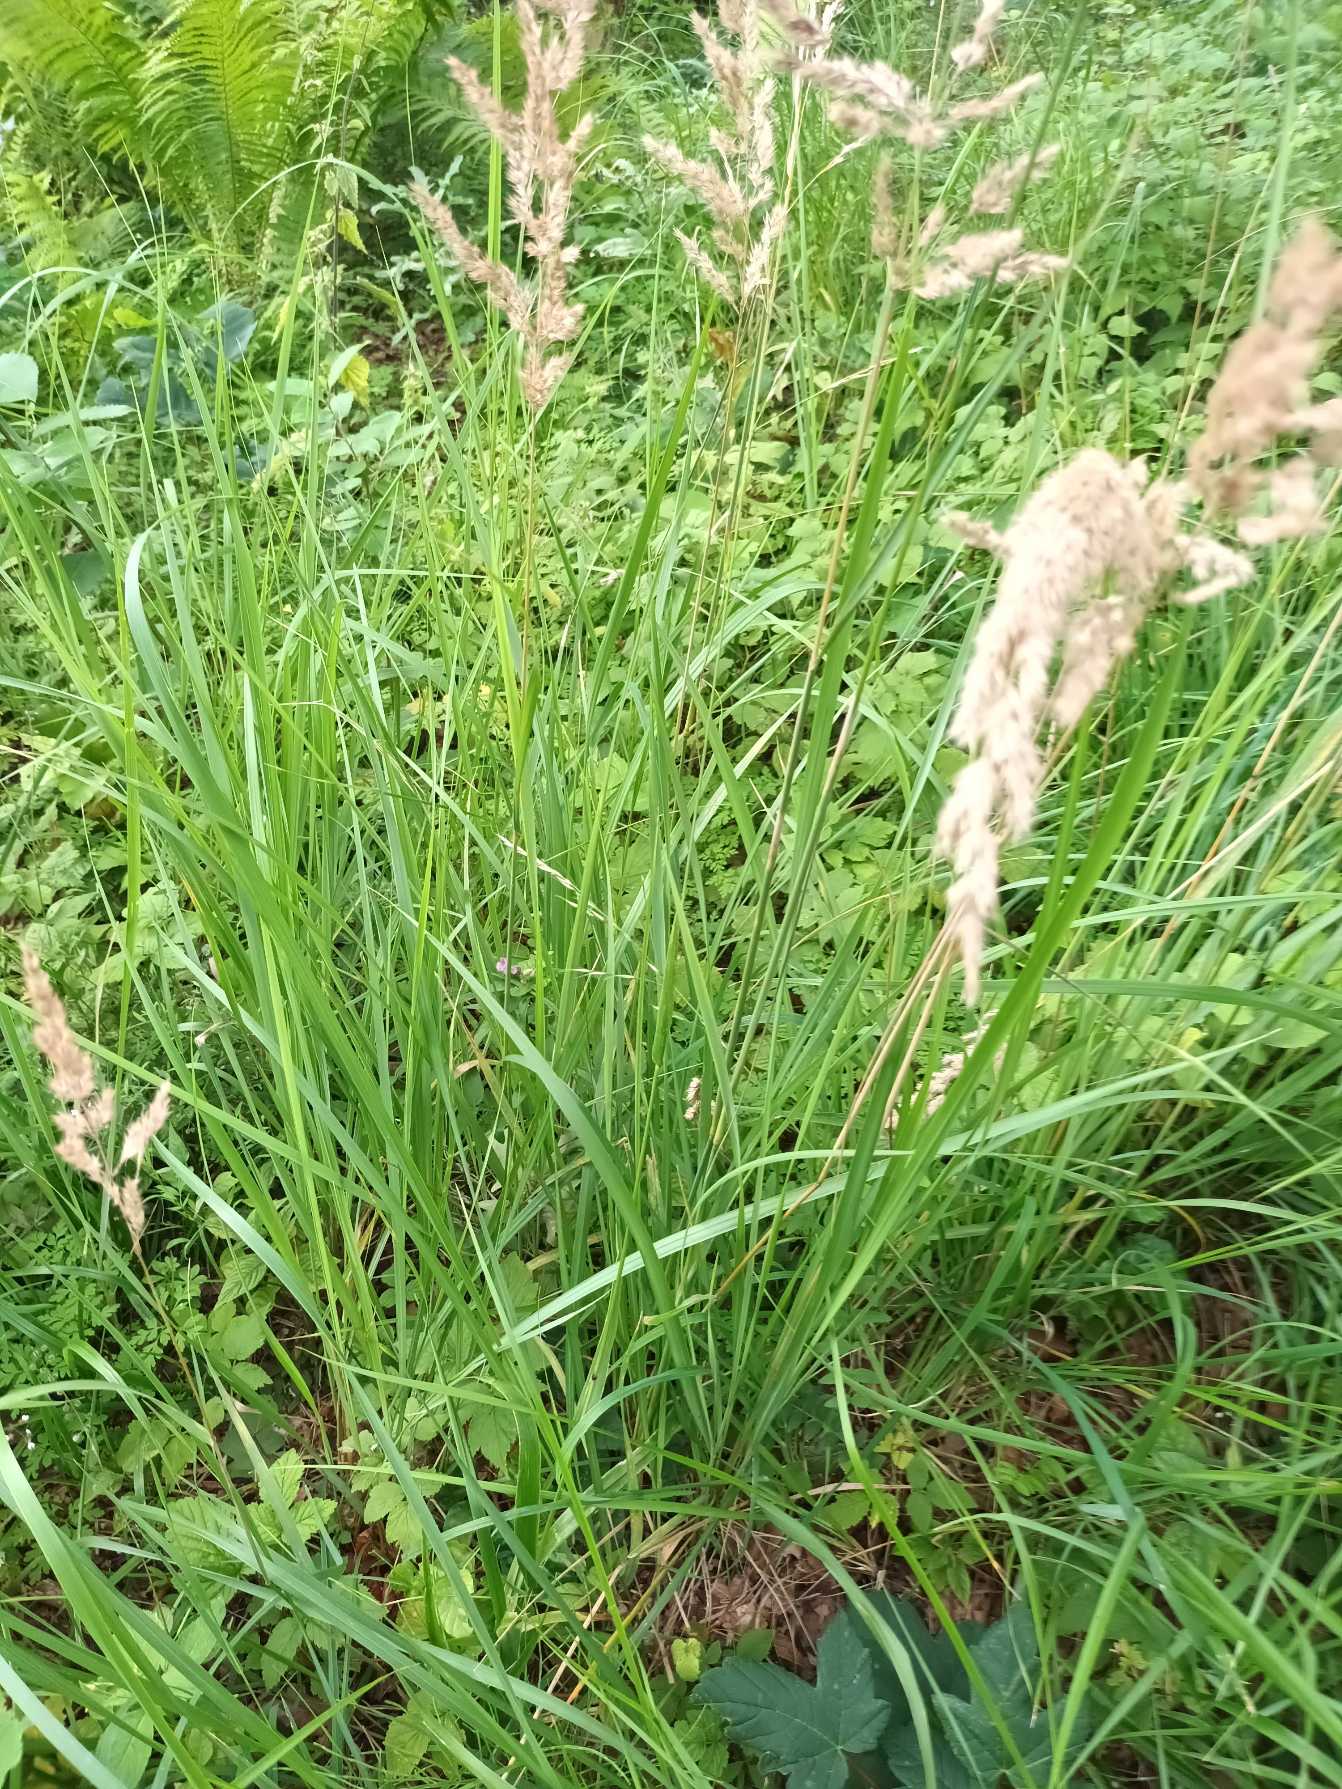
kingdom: Plantae
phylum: Tracheophyta
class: Liliopsida
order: Poales
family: Poaceae
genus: Calamagrostis
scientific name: Calamagrostis epigejos
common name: Bjerg-rørhvene
